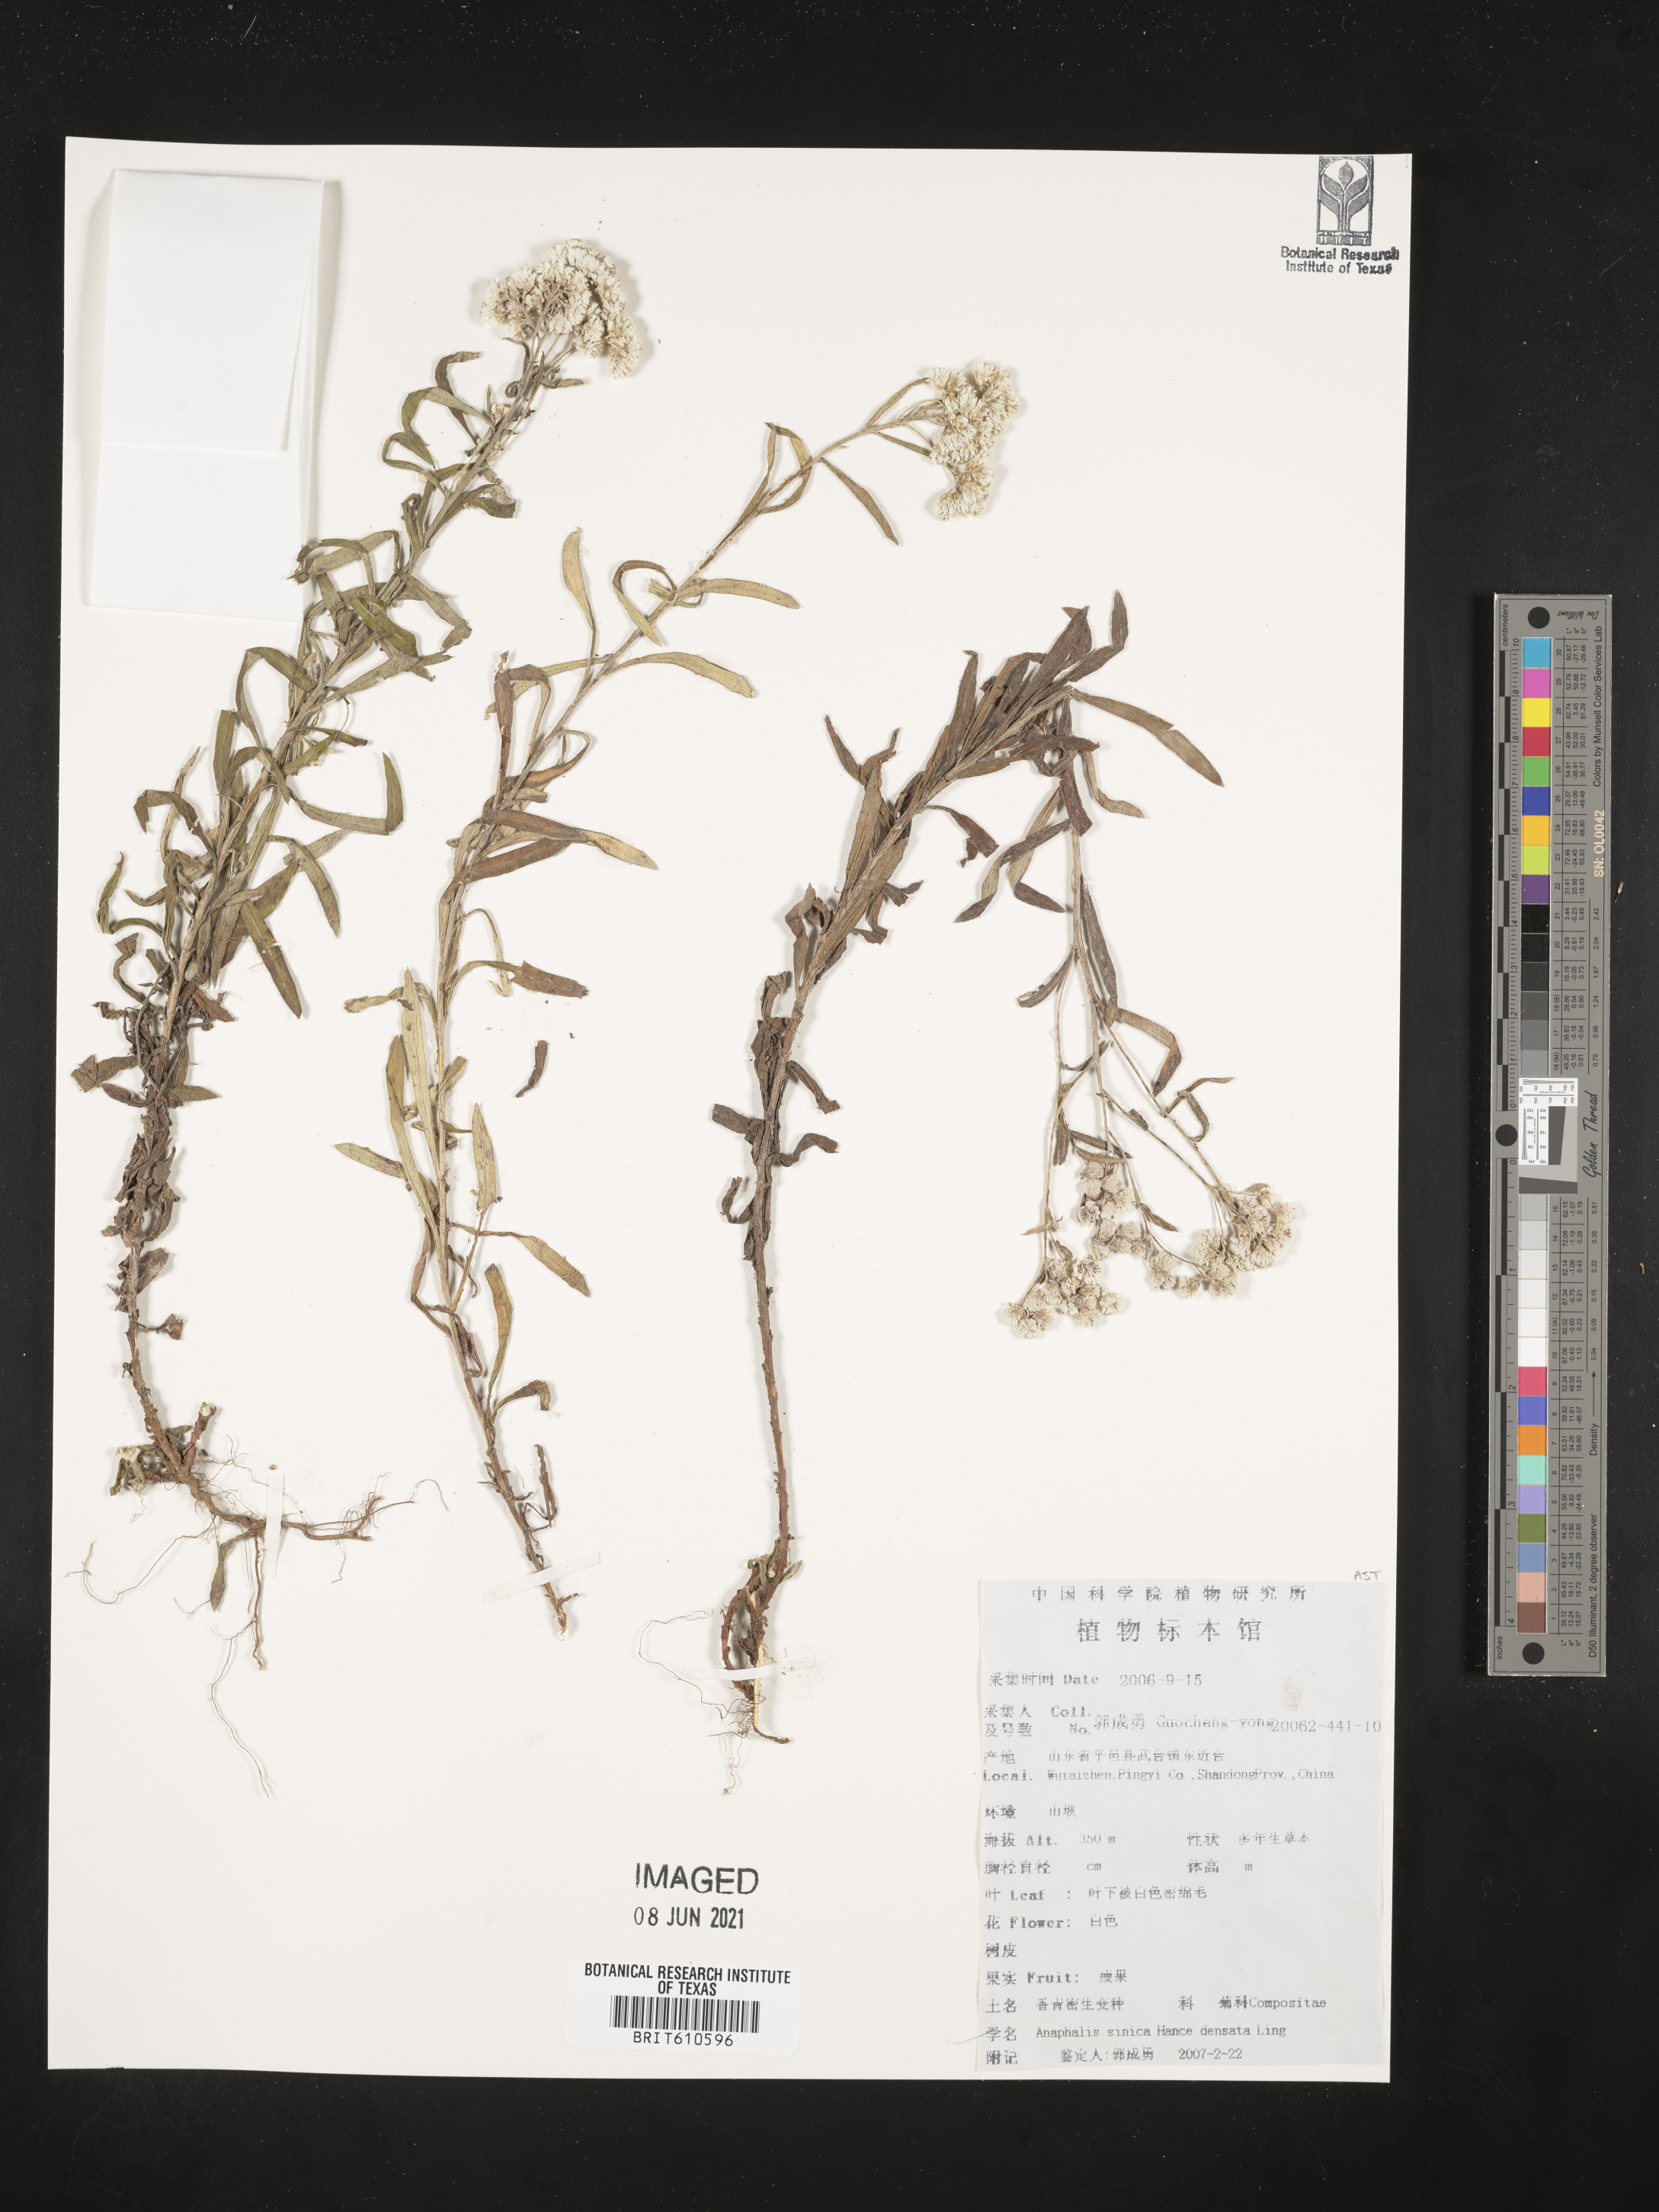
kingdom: Plantae
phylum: Tracheophyta
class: Magnoliopsida
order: Asterales
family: Asteraceae
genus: Anaphalis
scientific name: Anaphalis sinica
